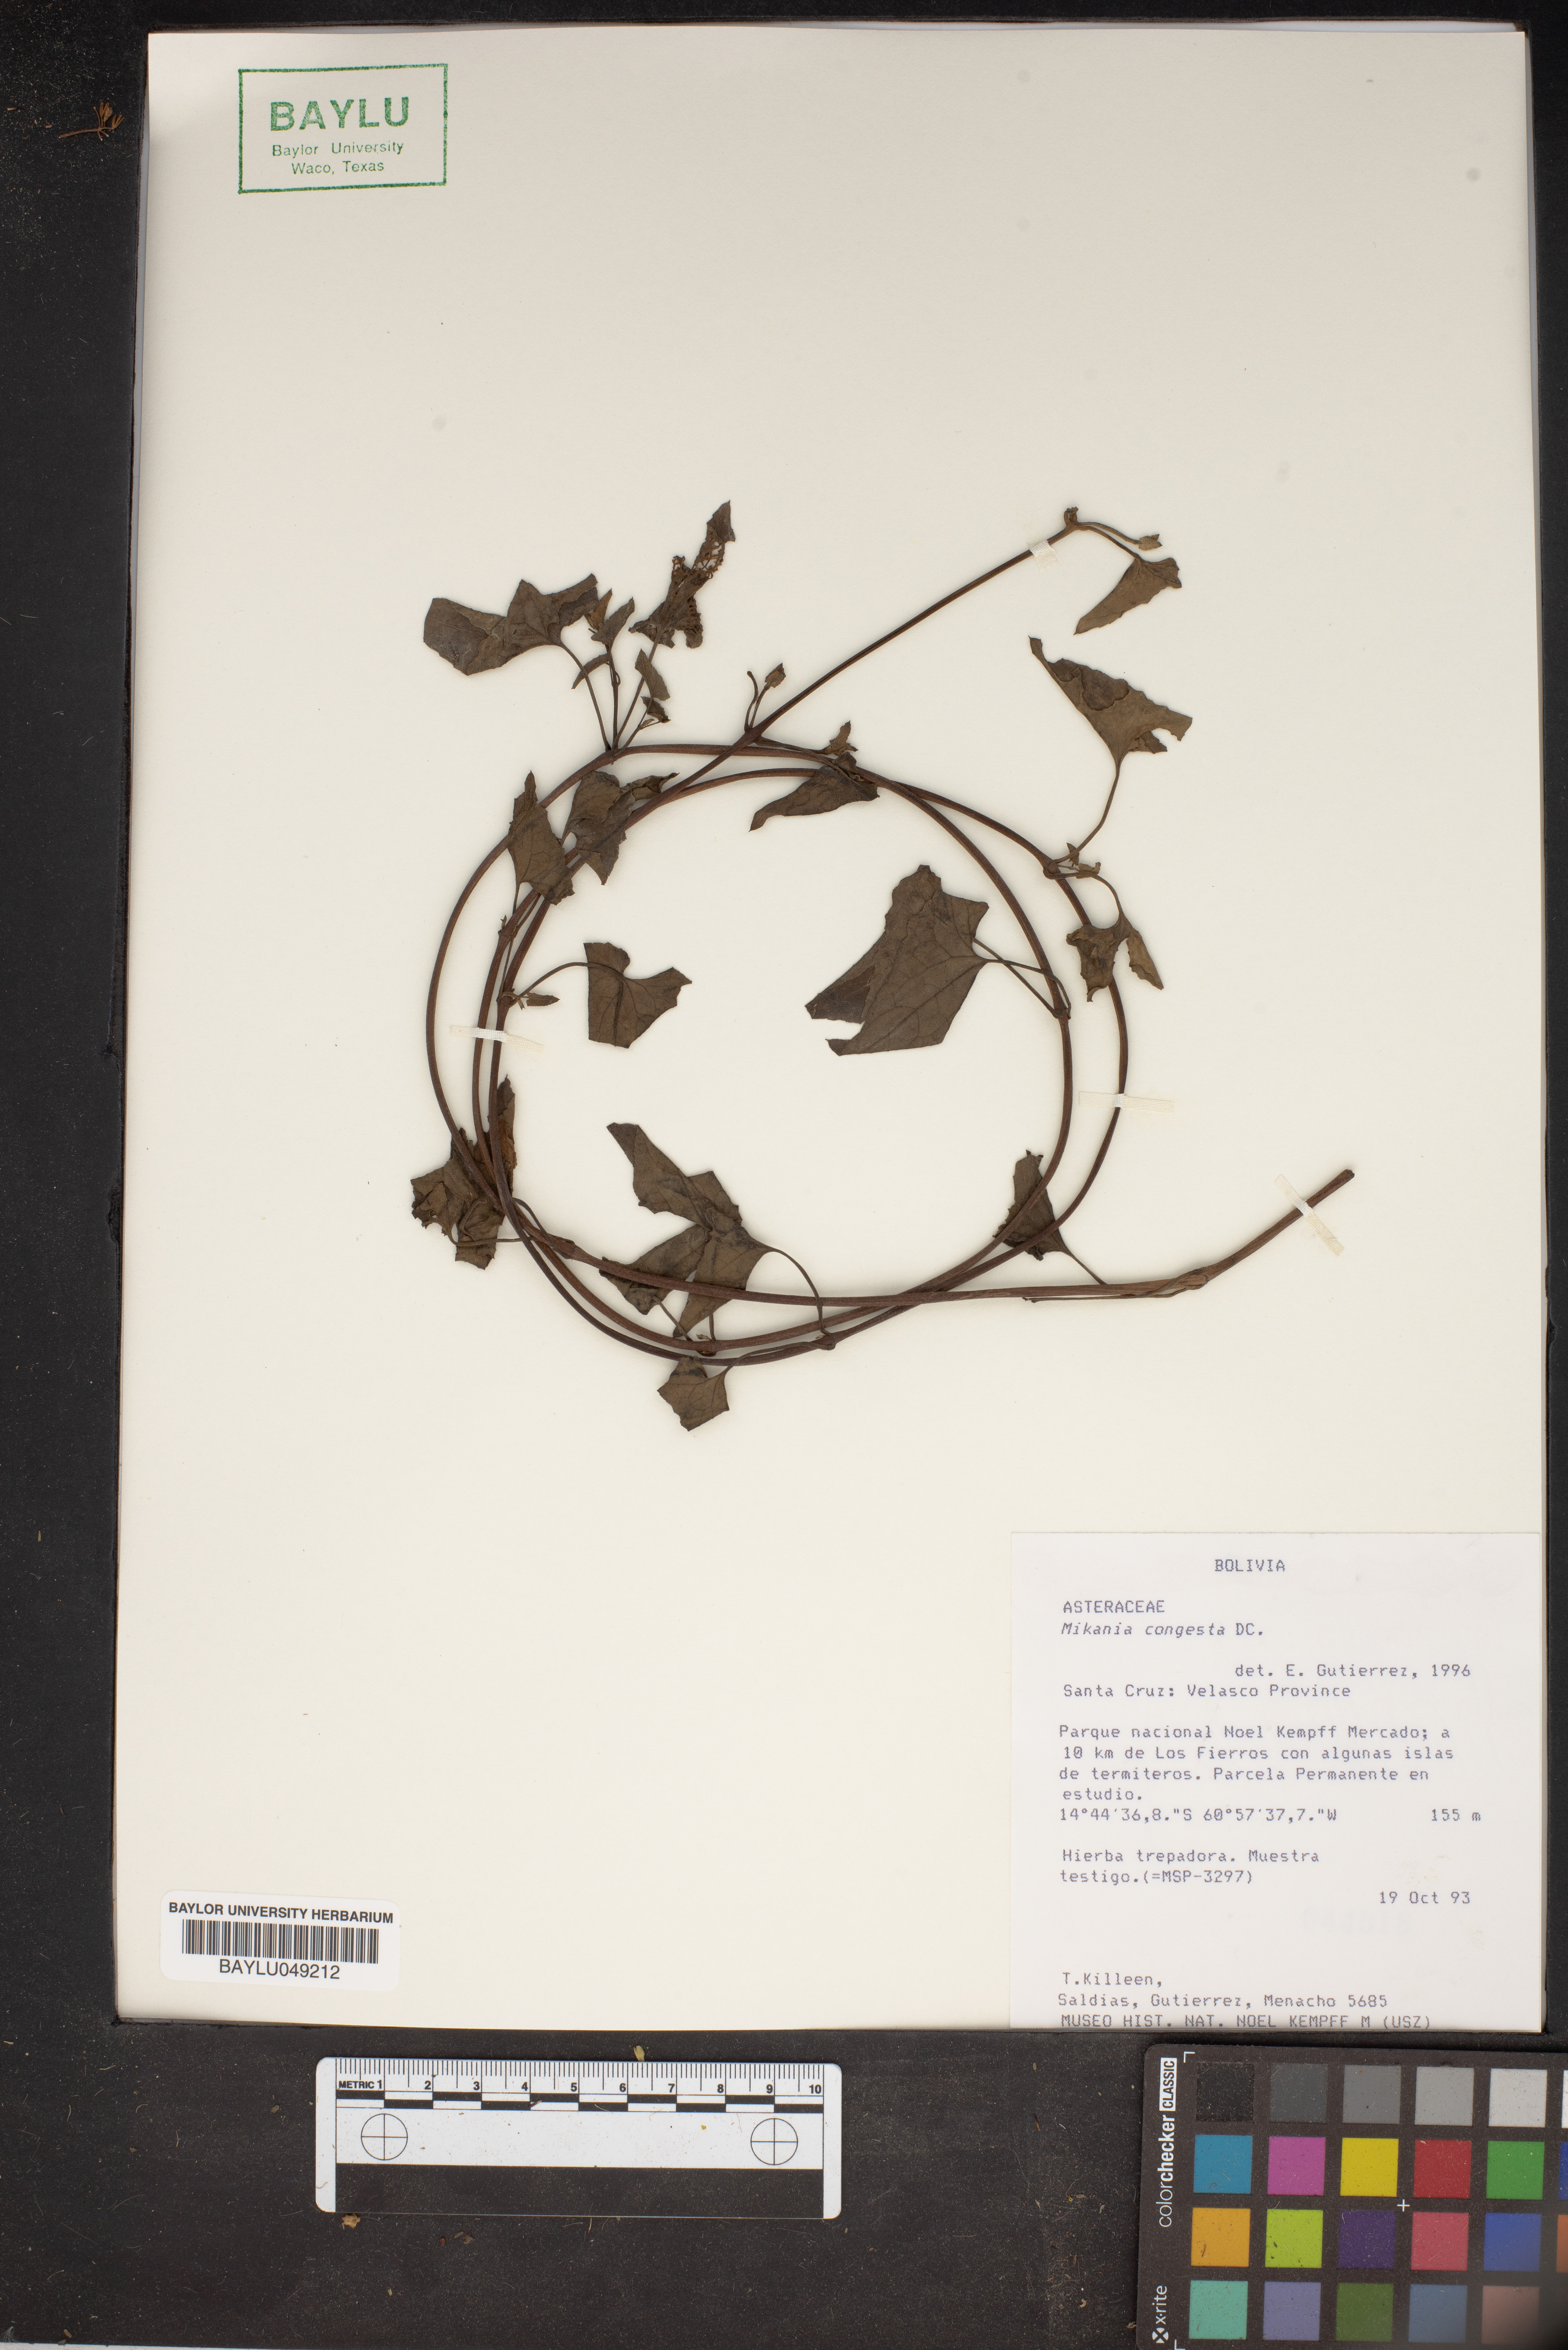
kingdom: Plantae
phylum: Tracheophyta
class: Magnoliopsida
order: Asterales
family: Asteraceae
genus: Mikania
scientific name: Mikania congesta
